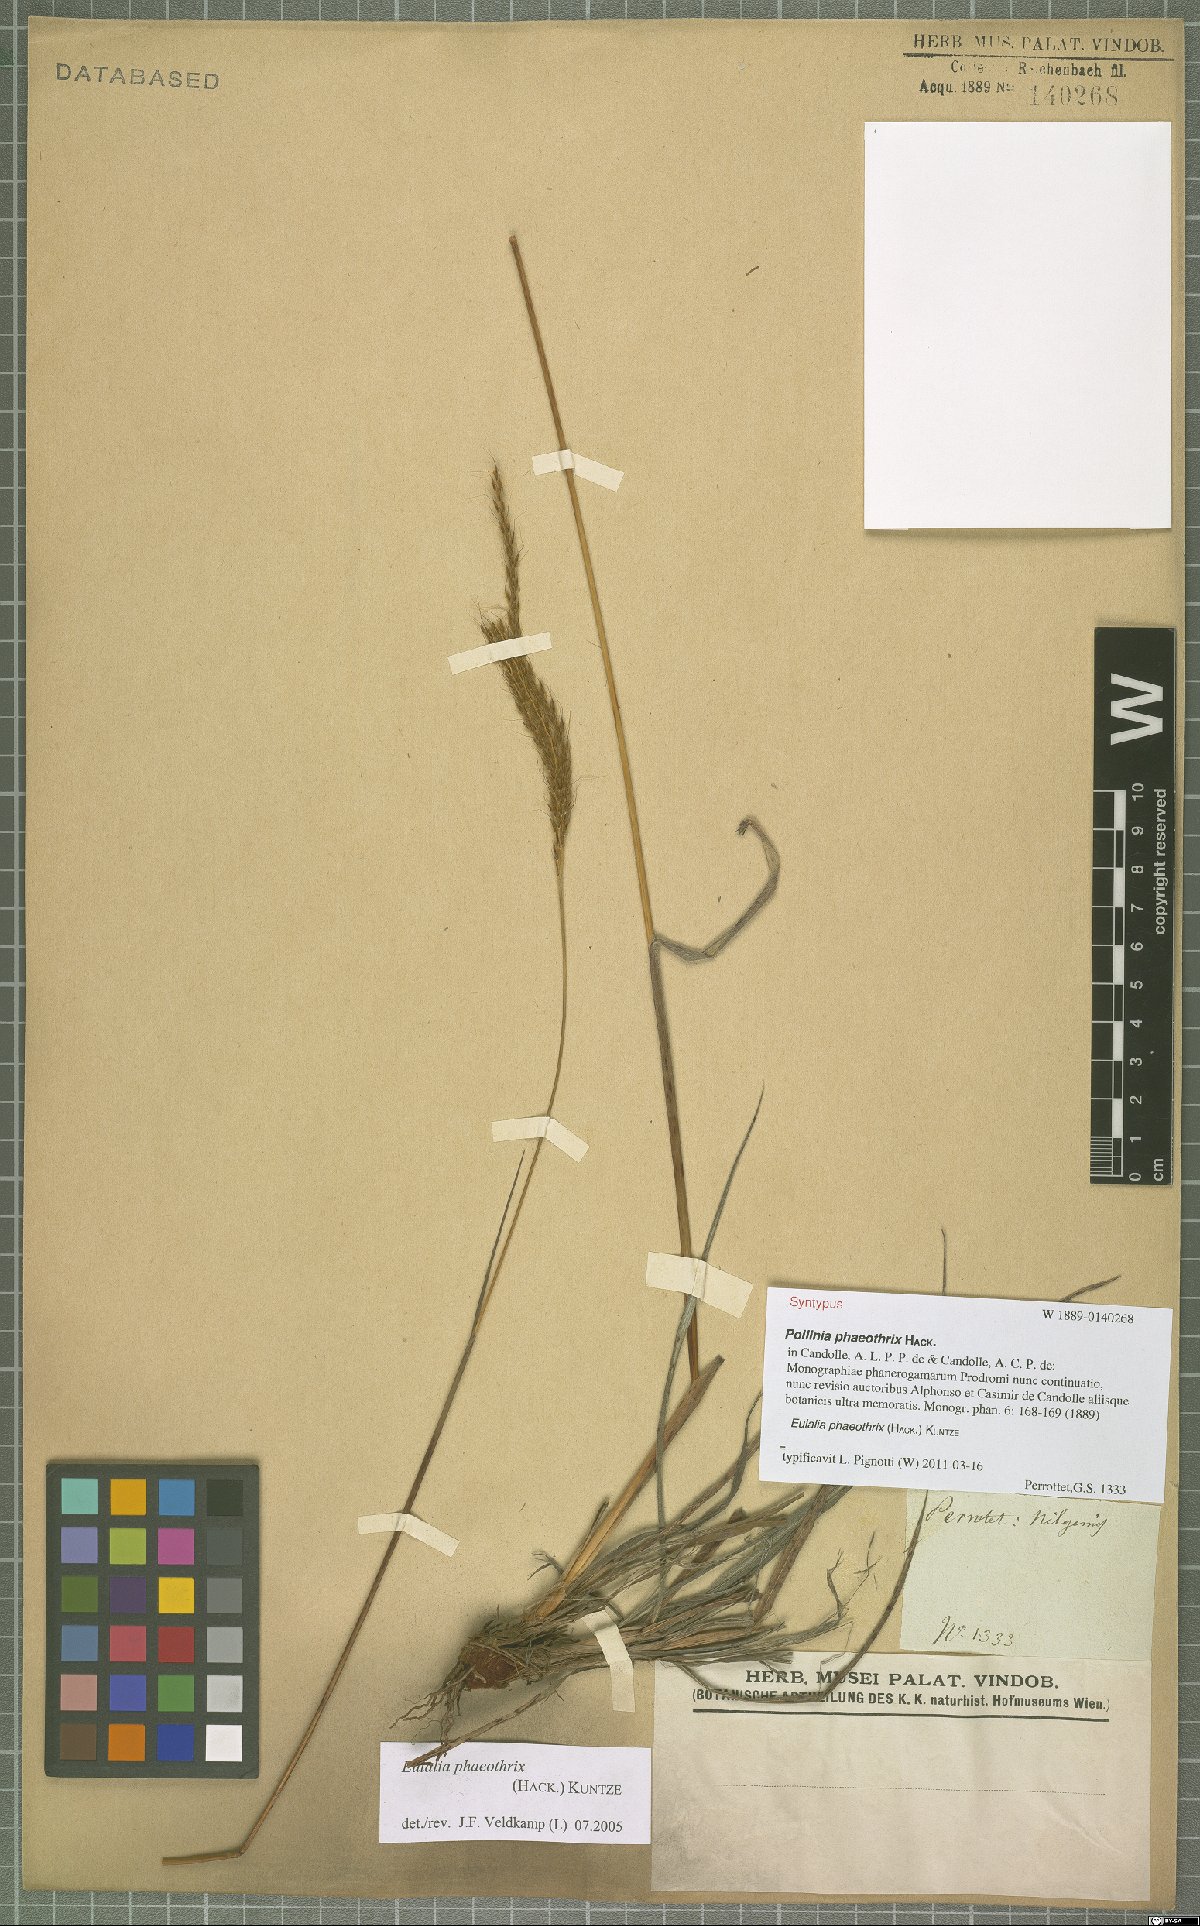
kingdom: Plantae
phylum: Tracheophyta
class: Liliopsida
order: Poales
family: Poaceae
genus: Eulalia
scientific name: Eulalia phaeothrix
